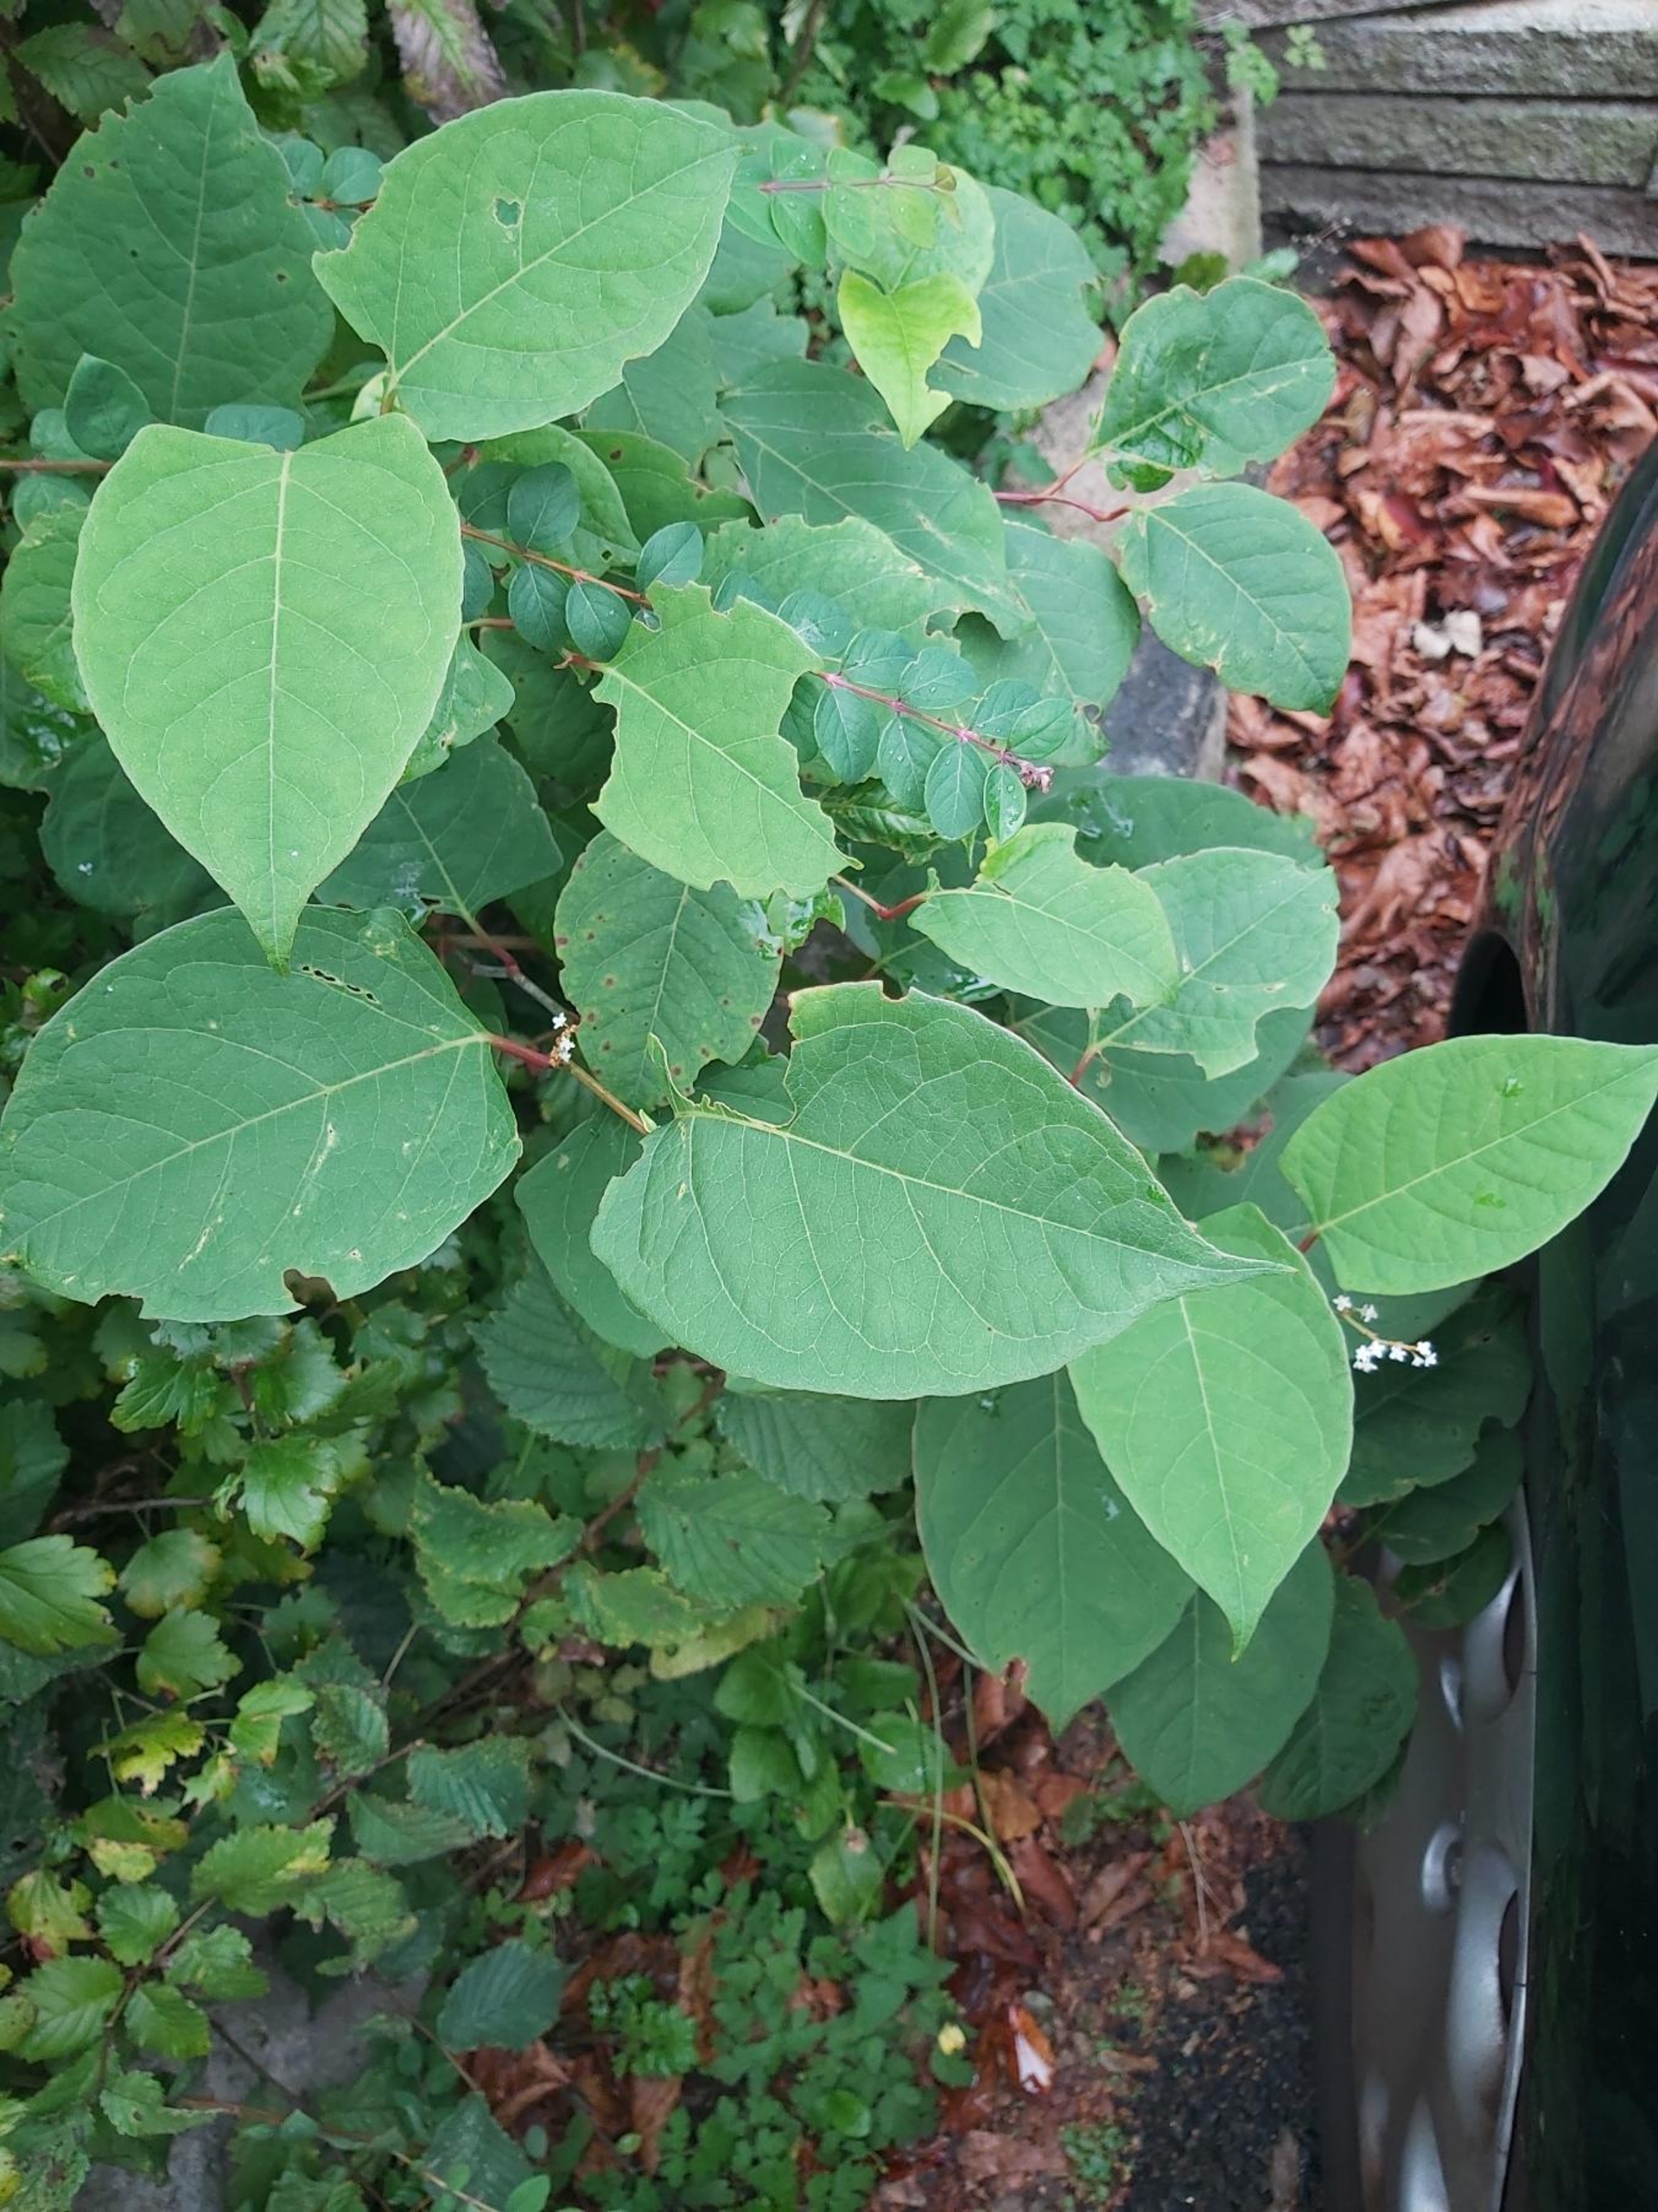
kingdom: Plantae
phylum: Tracheophyta
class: Magnoliopsida
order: Caryophyllales
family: Polygonaceae
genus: Reynoutria
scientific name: Reynoutria japonica
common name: Japan-pileurt
